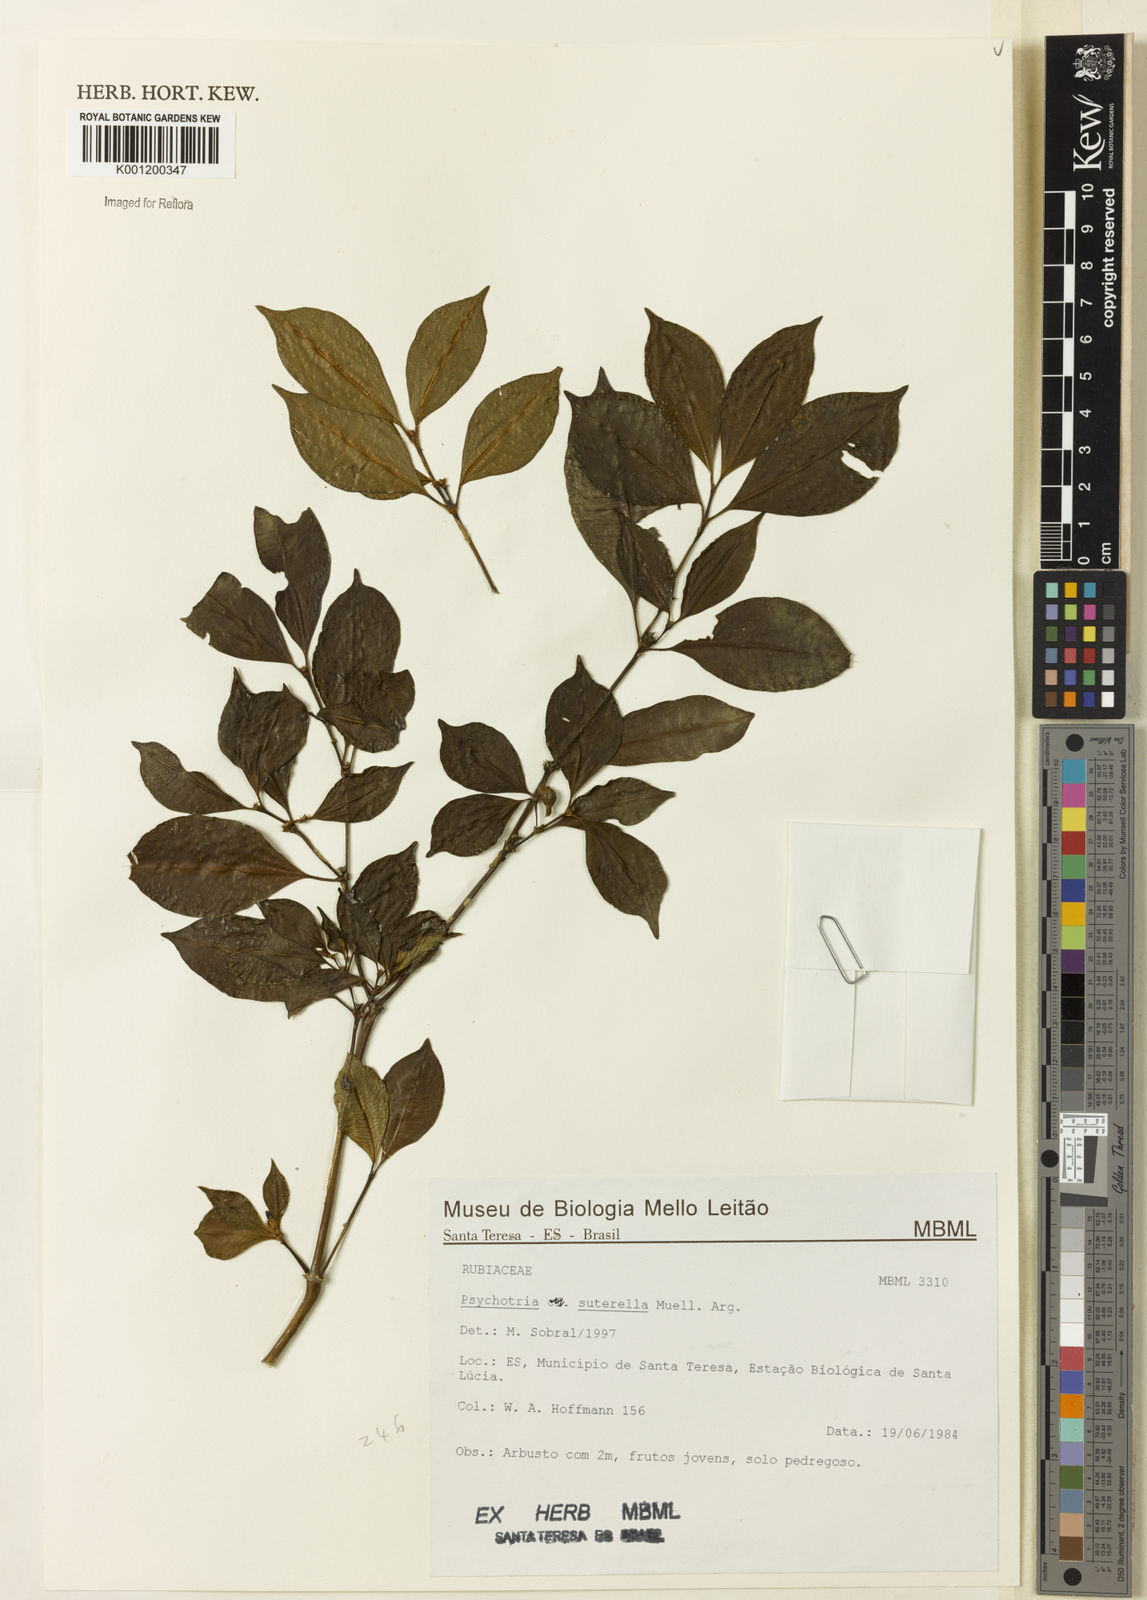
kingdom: Plantae
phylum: Tracheophyta
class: Magnoliopsida
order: Gentianales
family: Rubiaceae
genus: Psychotria
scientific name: Psychotria
